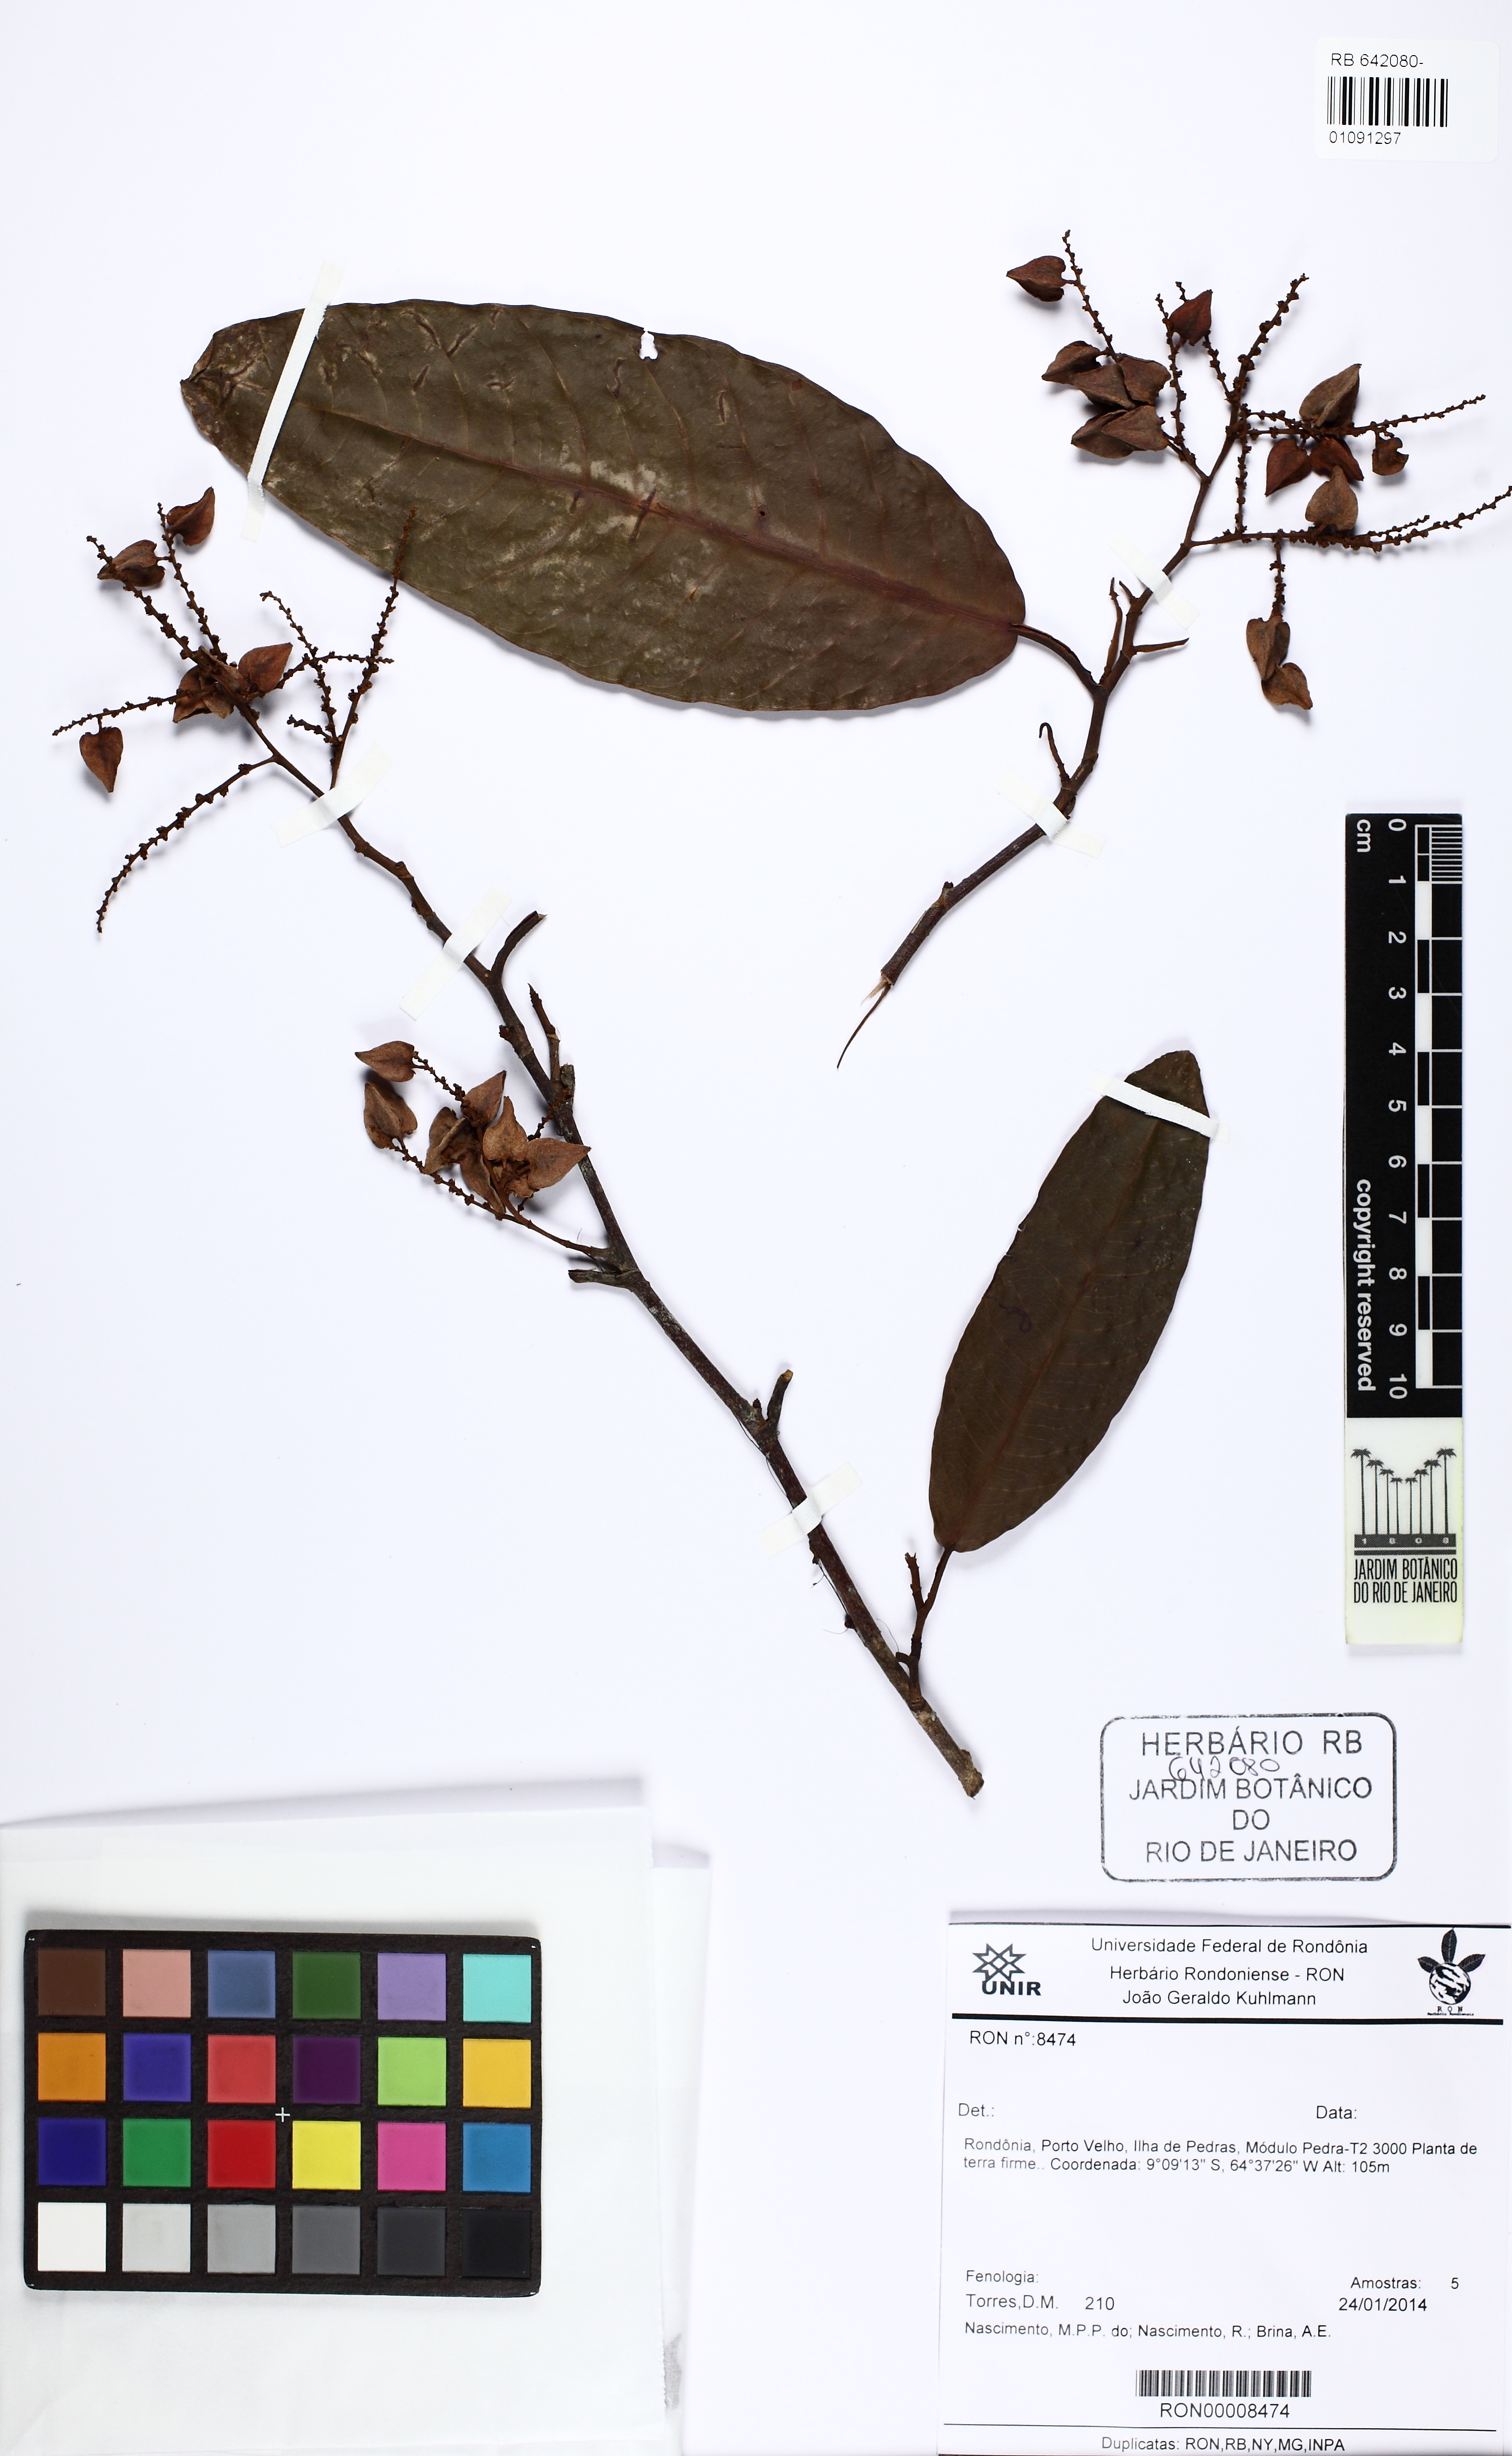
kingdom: Plantae
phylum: Tracheophyta
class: Magnoliopsida
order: Caryophyllales
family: Polygonaceae
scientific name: Polygonaceae
